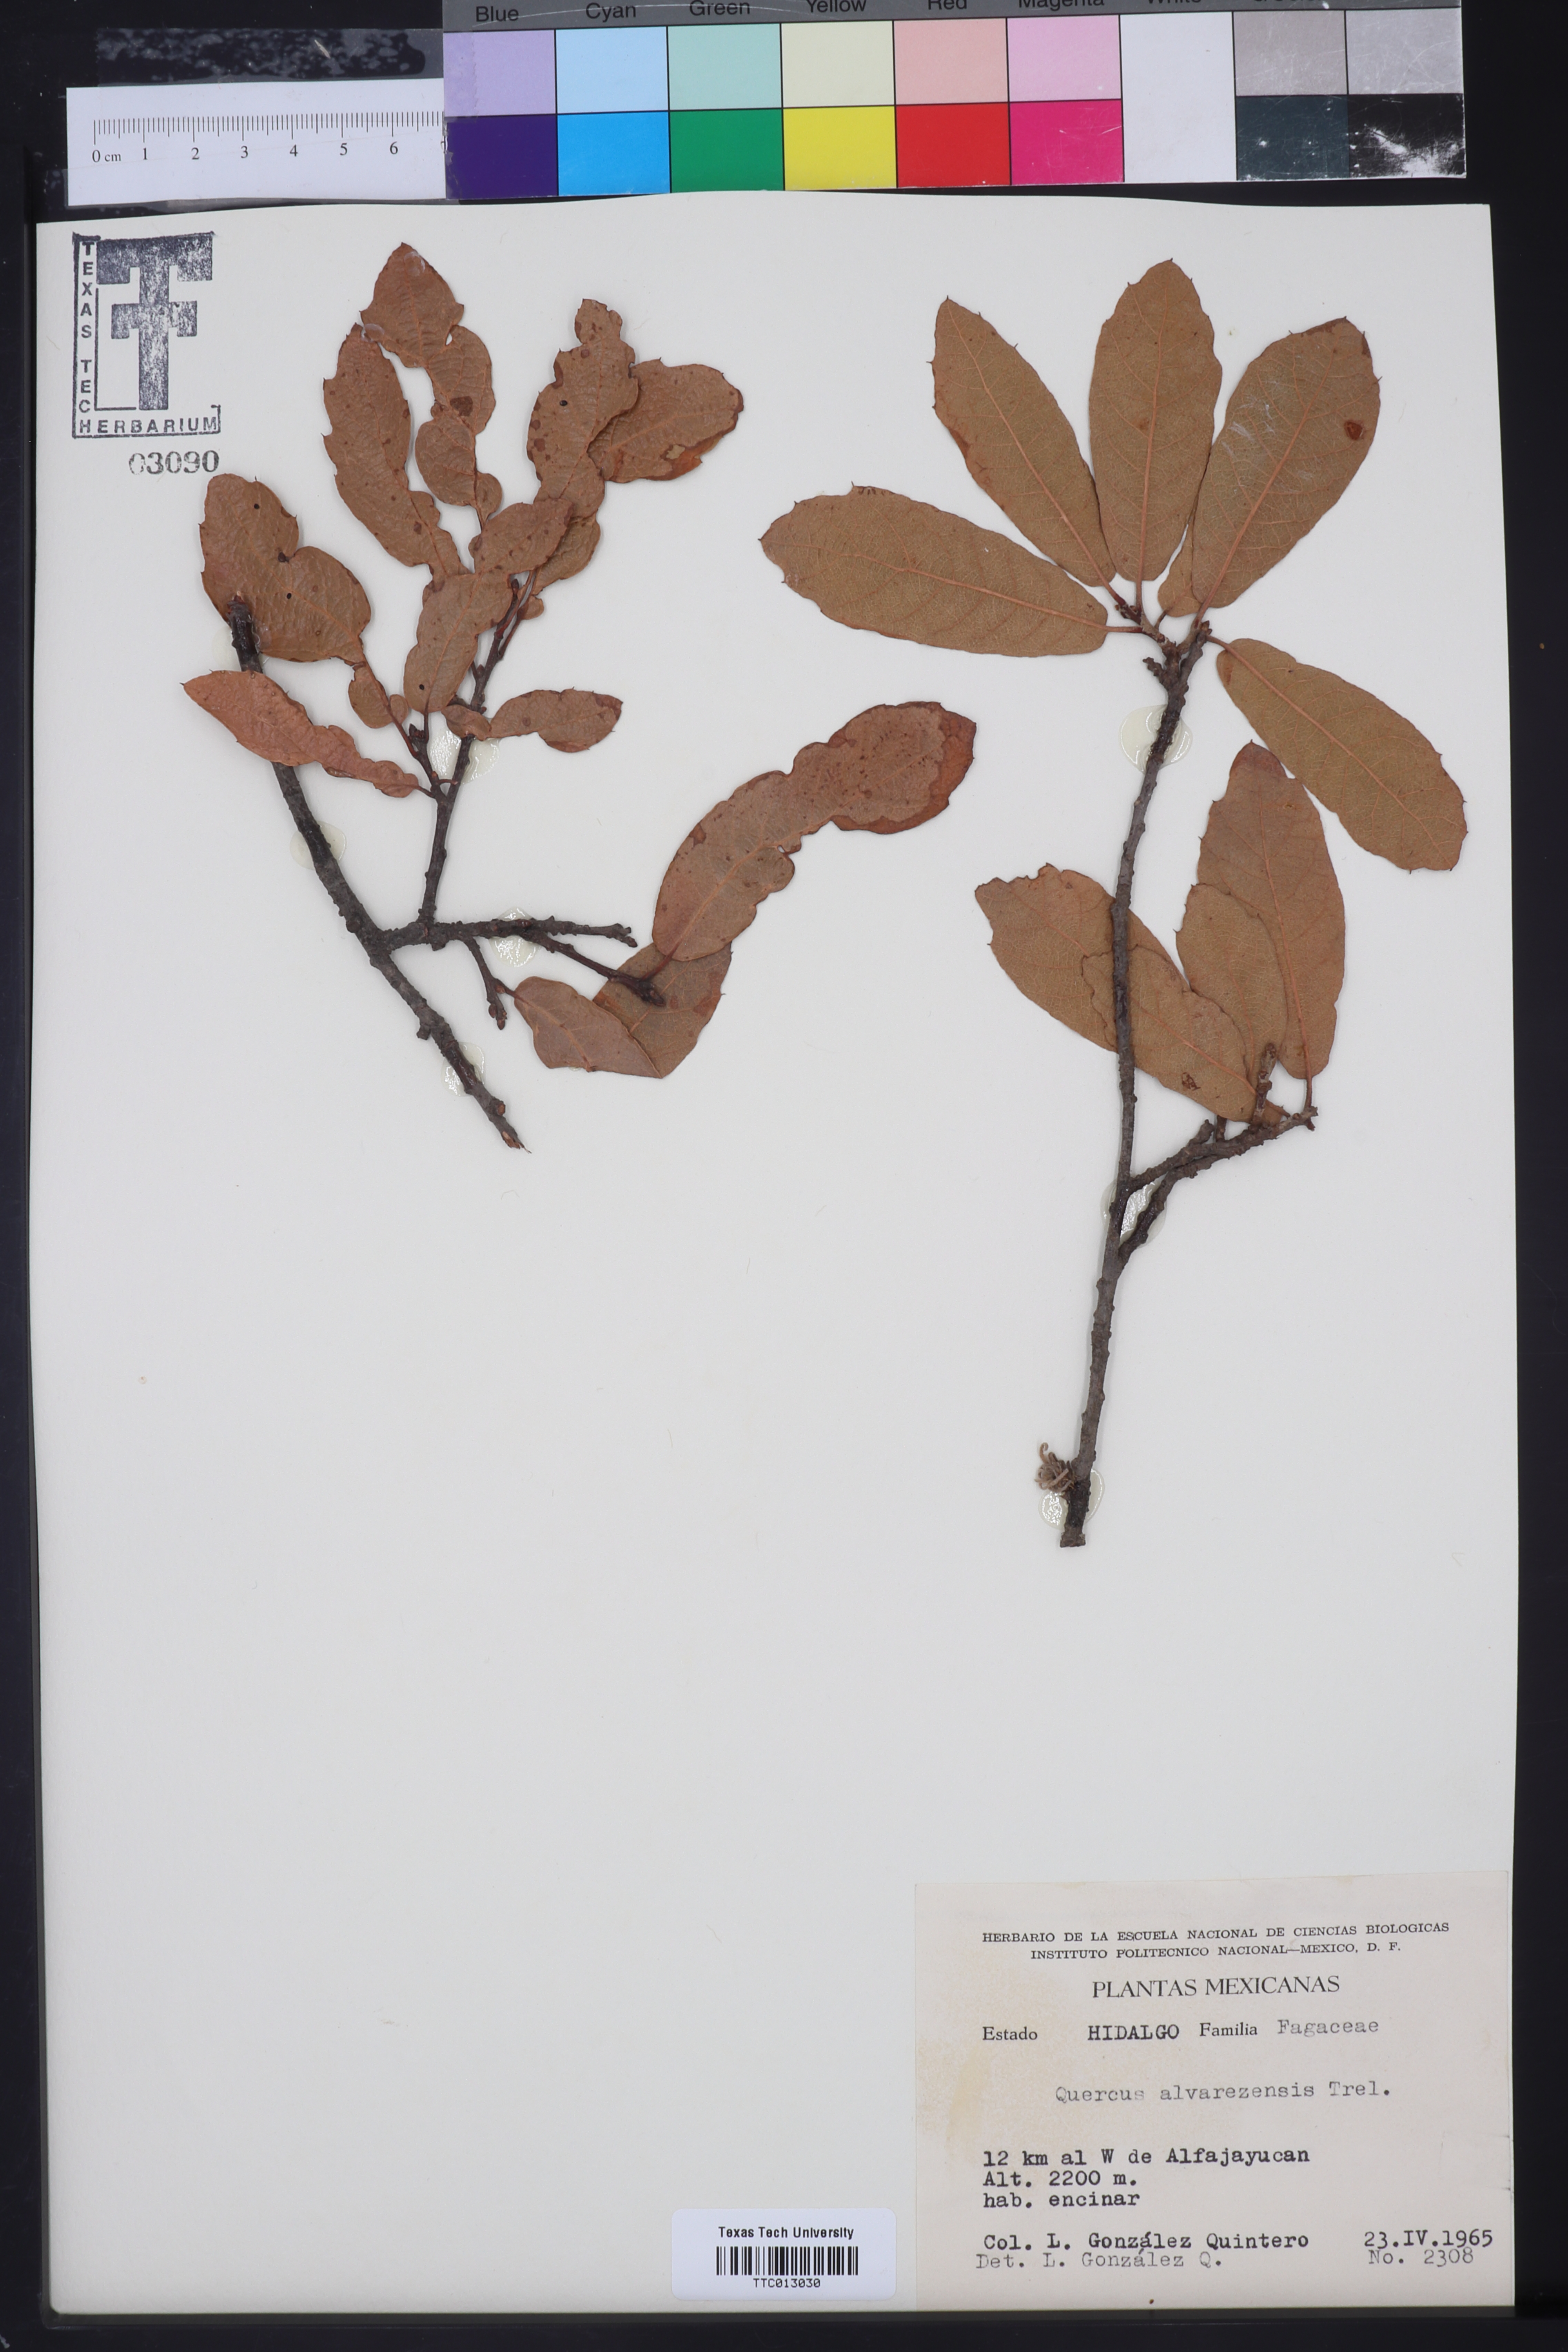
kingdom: Plantae
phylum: Tracheophyta
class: Magnoliopsida
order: Fagales
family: Fagaceae
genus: Quercus
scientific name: Quercus obtusata
